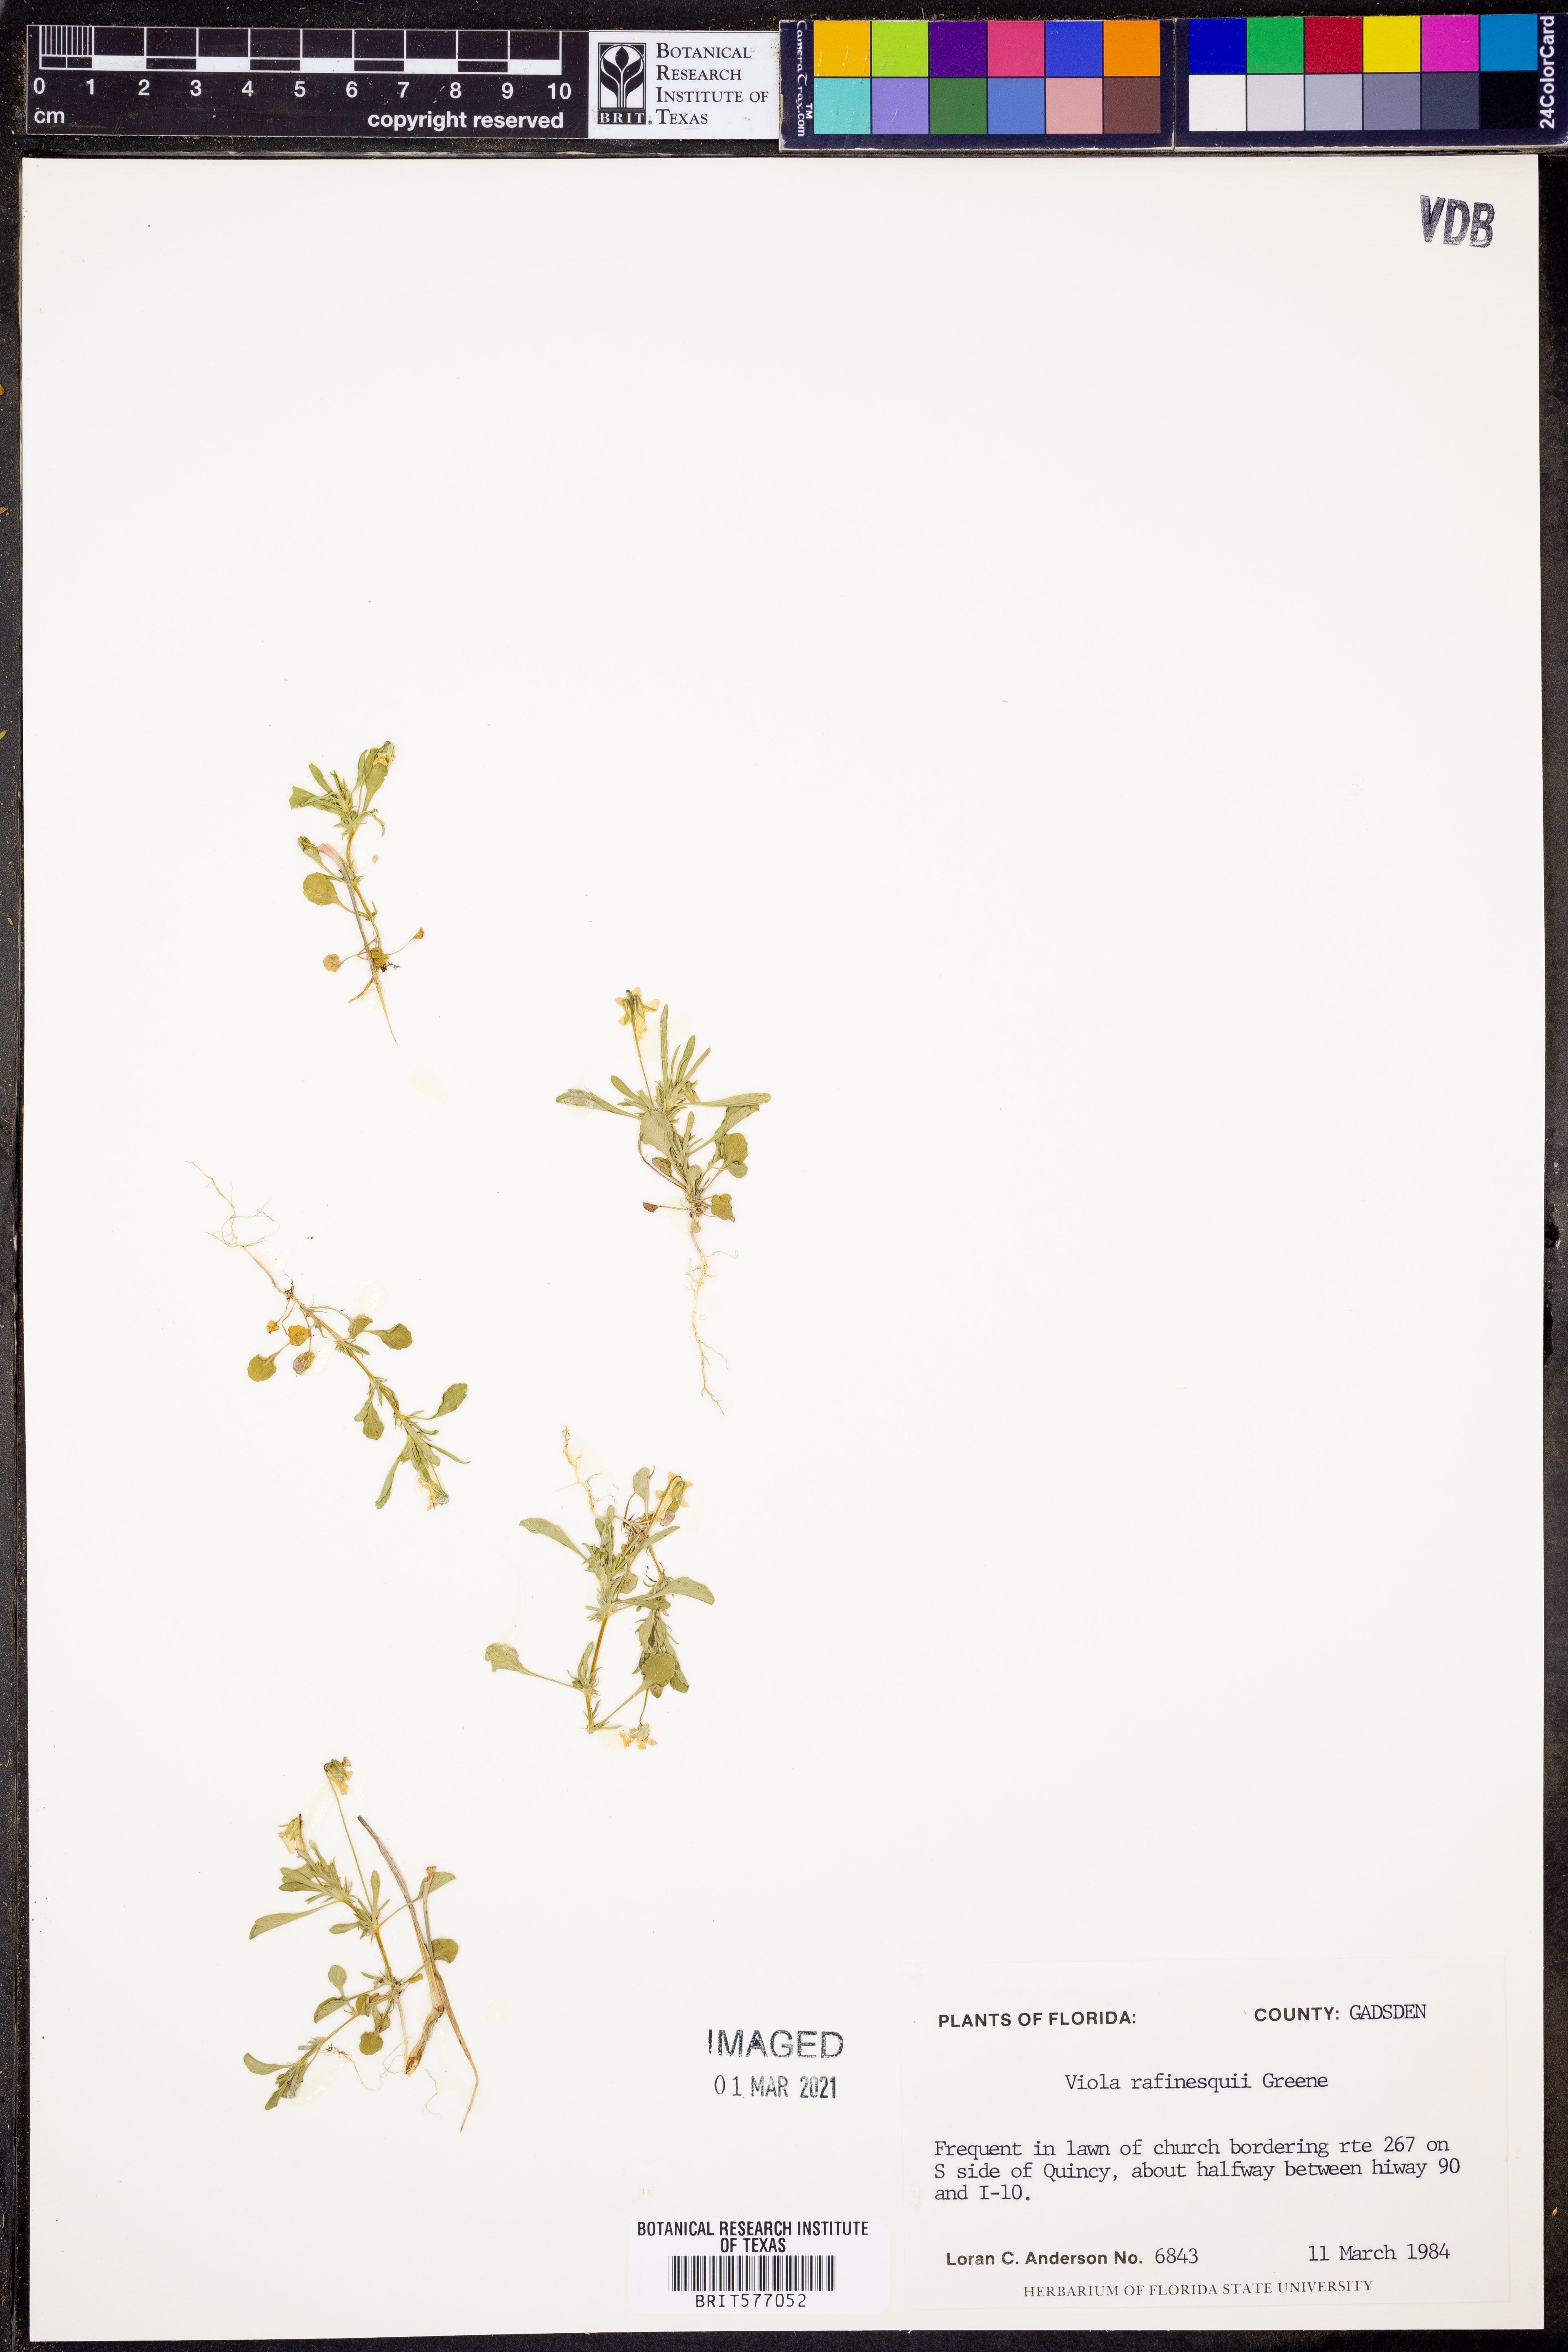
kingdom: Plantae
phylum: Tracheophyta
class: Magnoliopsida
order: Malpighiales
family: Violaceae
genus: Viola
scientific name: Viola rafinesquei
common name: American field pansy
